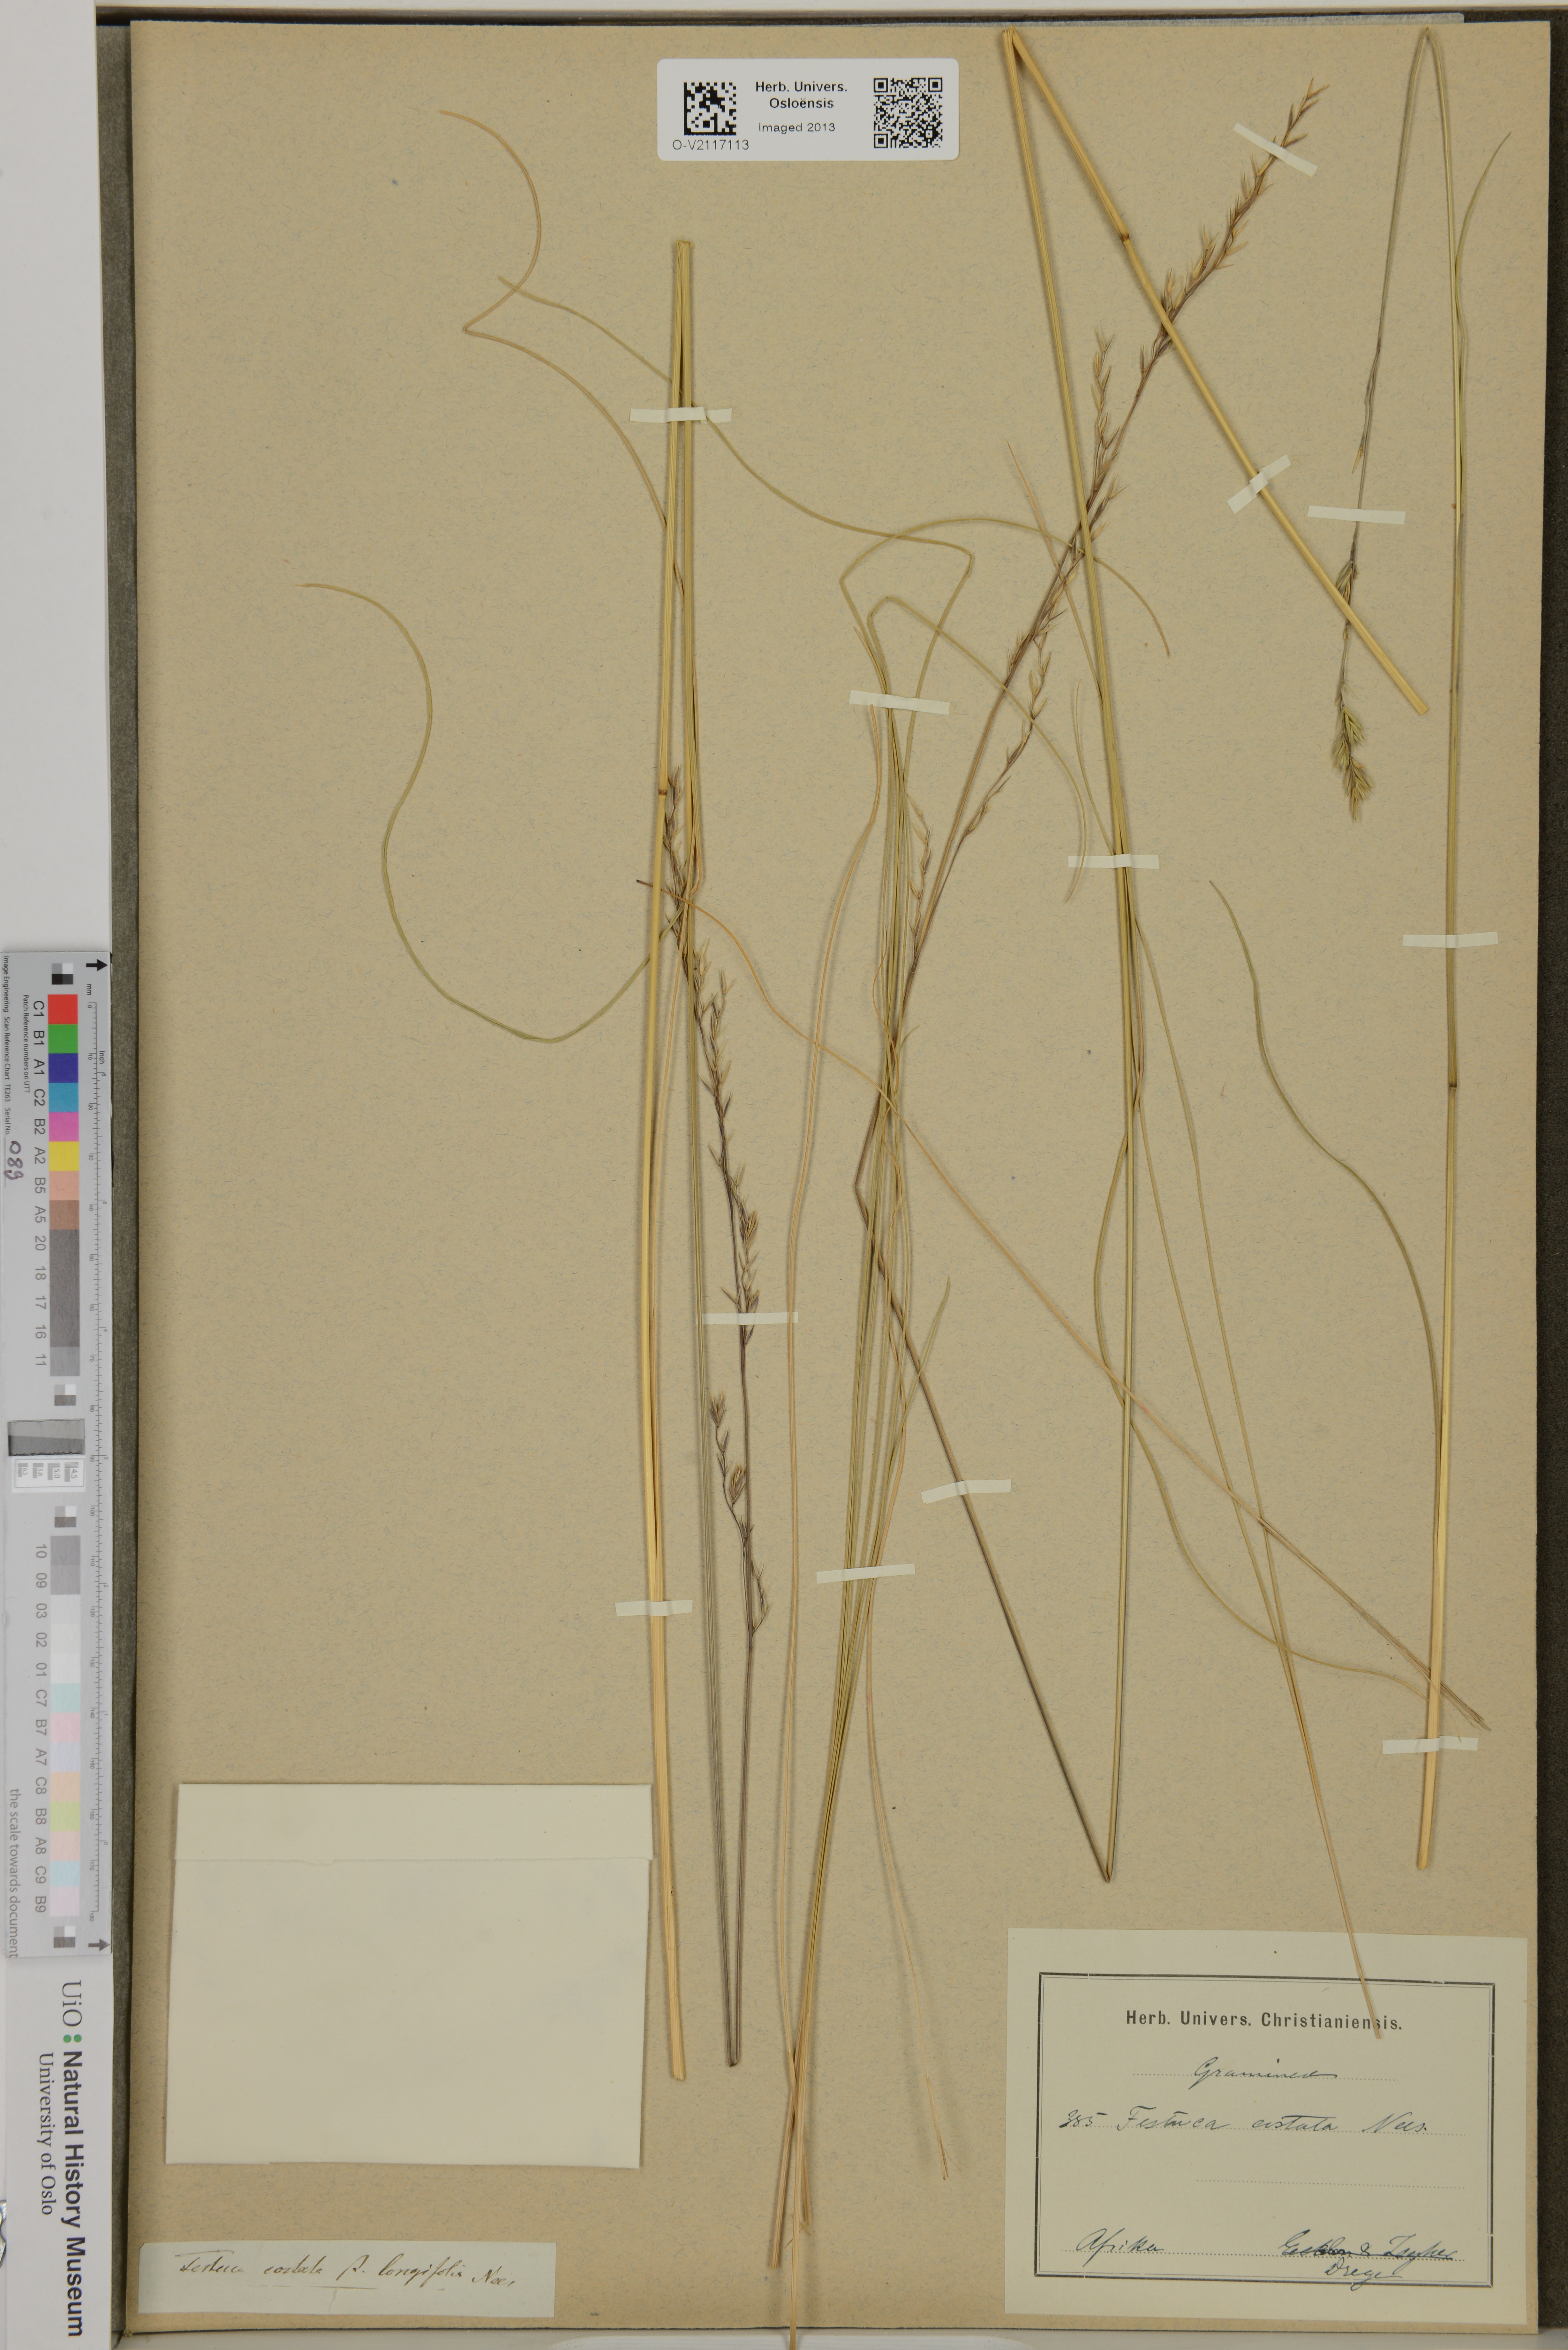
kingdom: Plantae
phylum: Tracheophyta
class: Liliopsida
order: Poales
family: Poaceae
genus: Festuca
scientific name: Festuca costata
